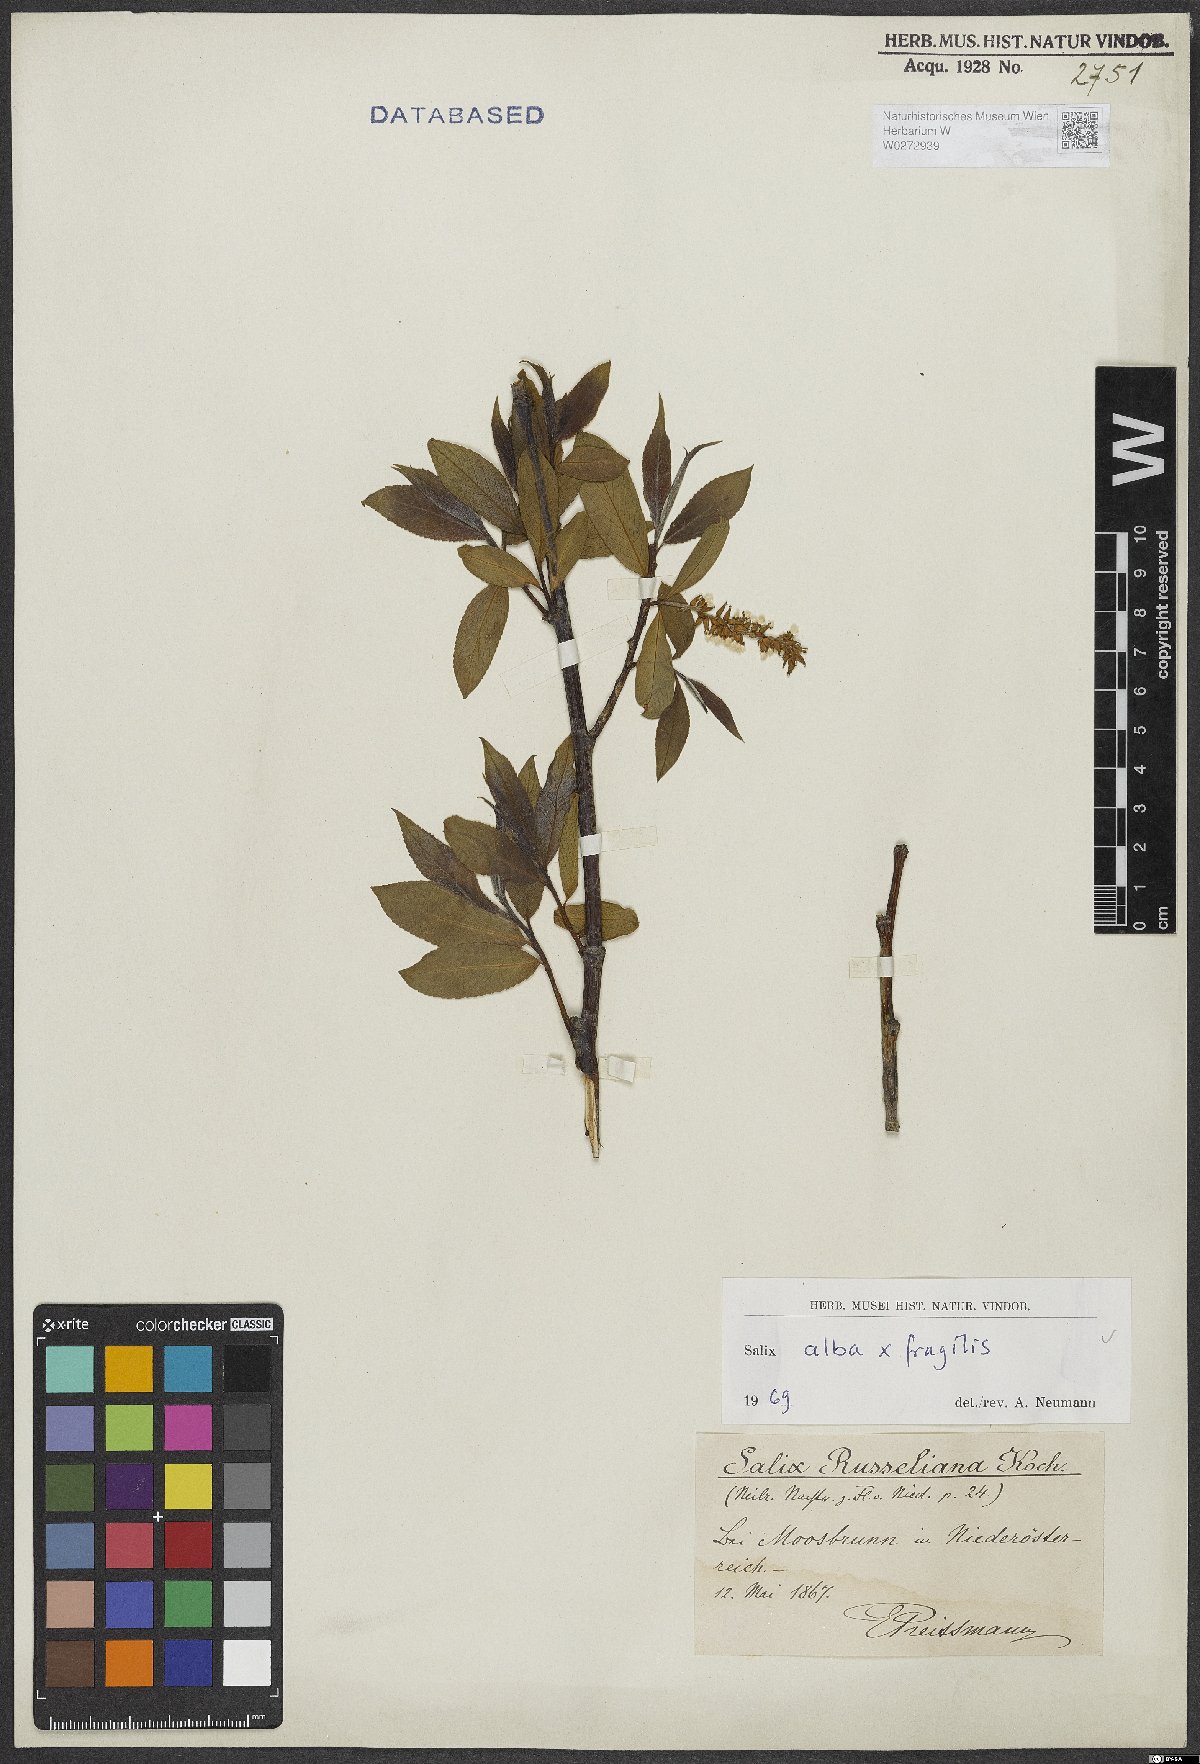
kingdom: Plantae
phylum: Tracheophyta
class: Magnoliopsida
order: Malpighiales
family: Salicaceae
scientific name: Salicaceae
